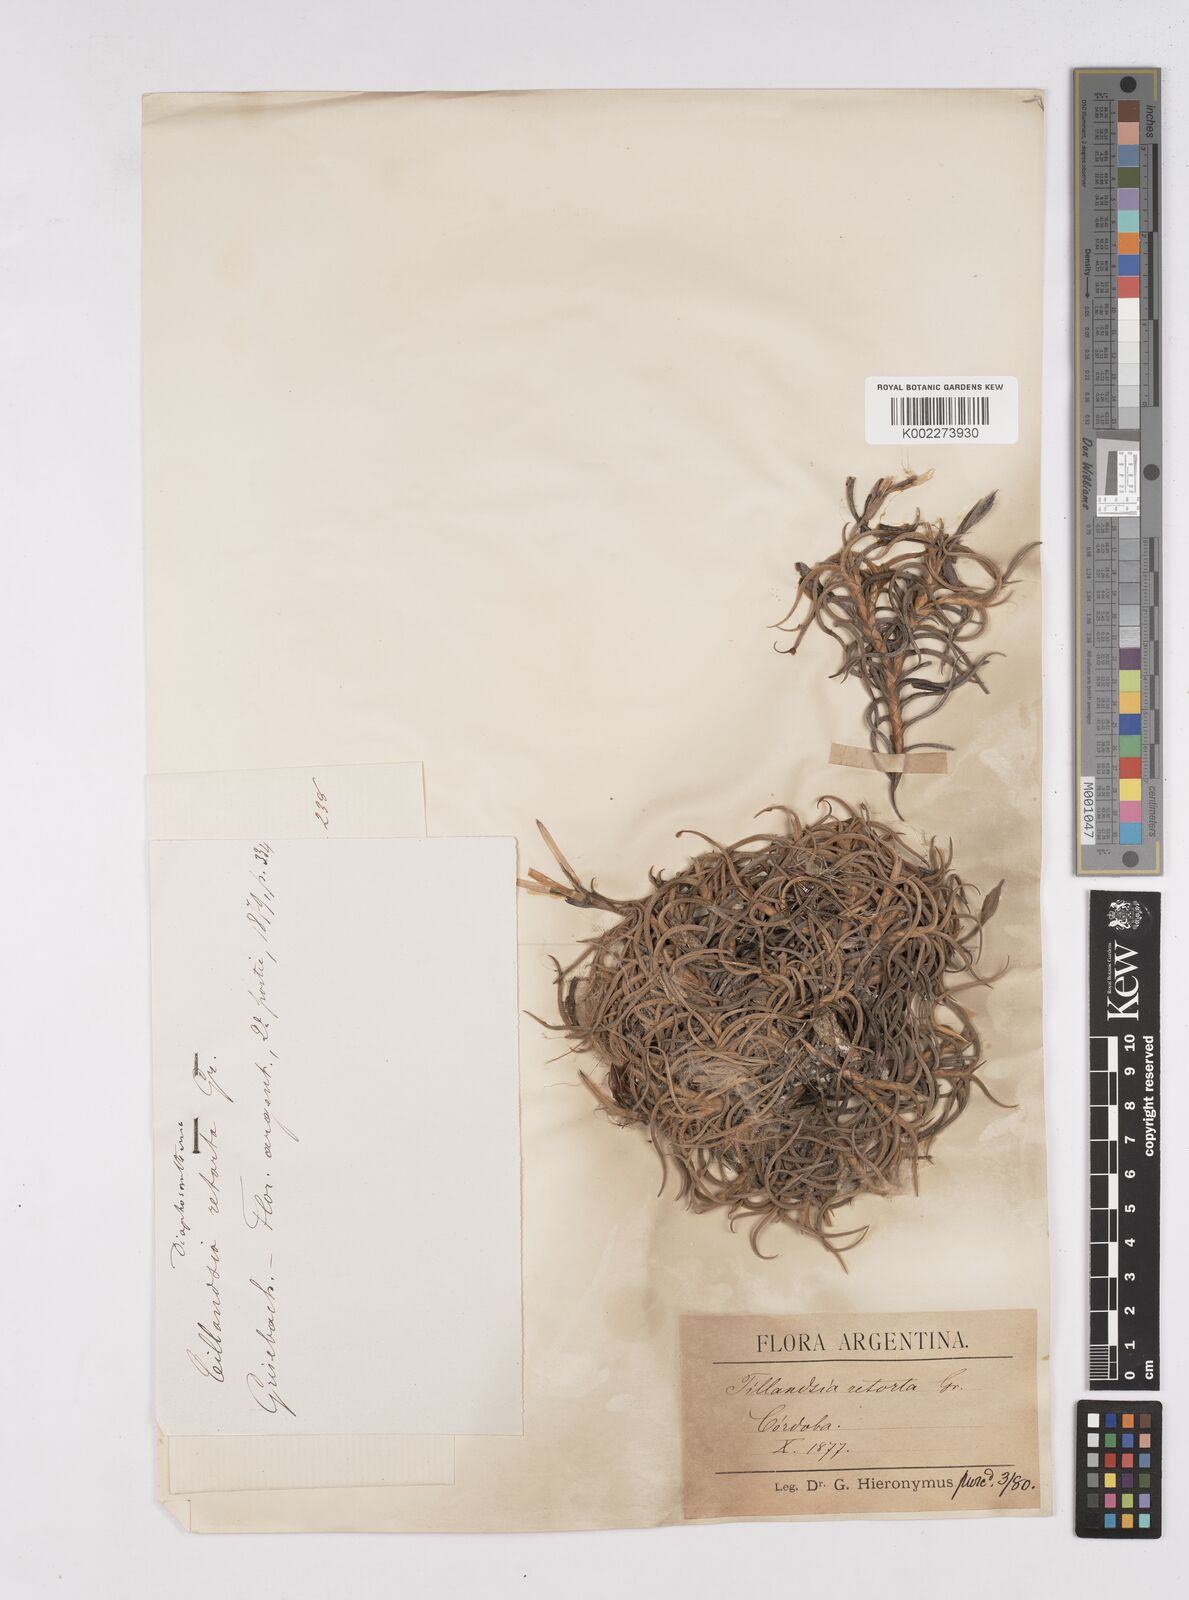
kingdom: Plantae
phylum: Tracheophyta
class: Liliopsida
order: Poales
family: Bromeliaceae
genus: Tillandsia
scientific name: Tillandsia retorta
